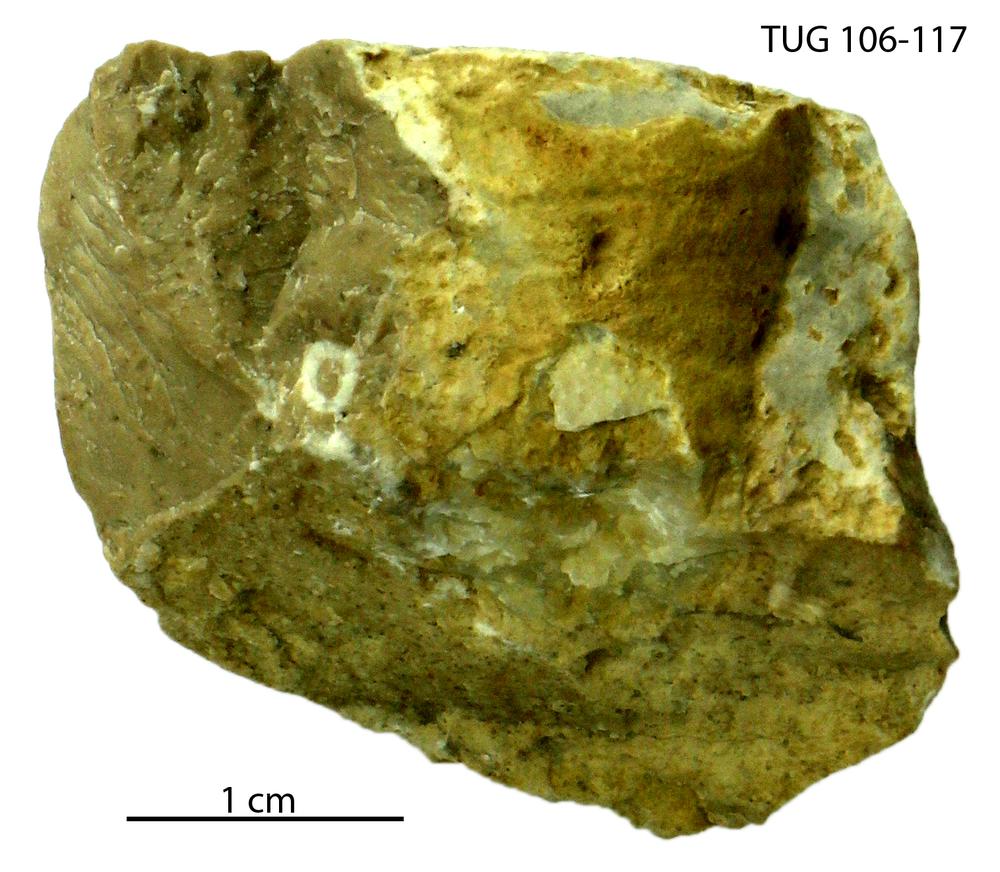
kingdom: Animalia
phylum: Brachiopoda
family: Leptellinidae
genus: Sampo
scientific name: Sampo hiiuensis
